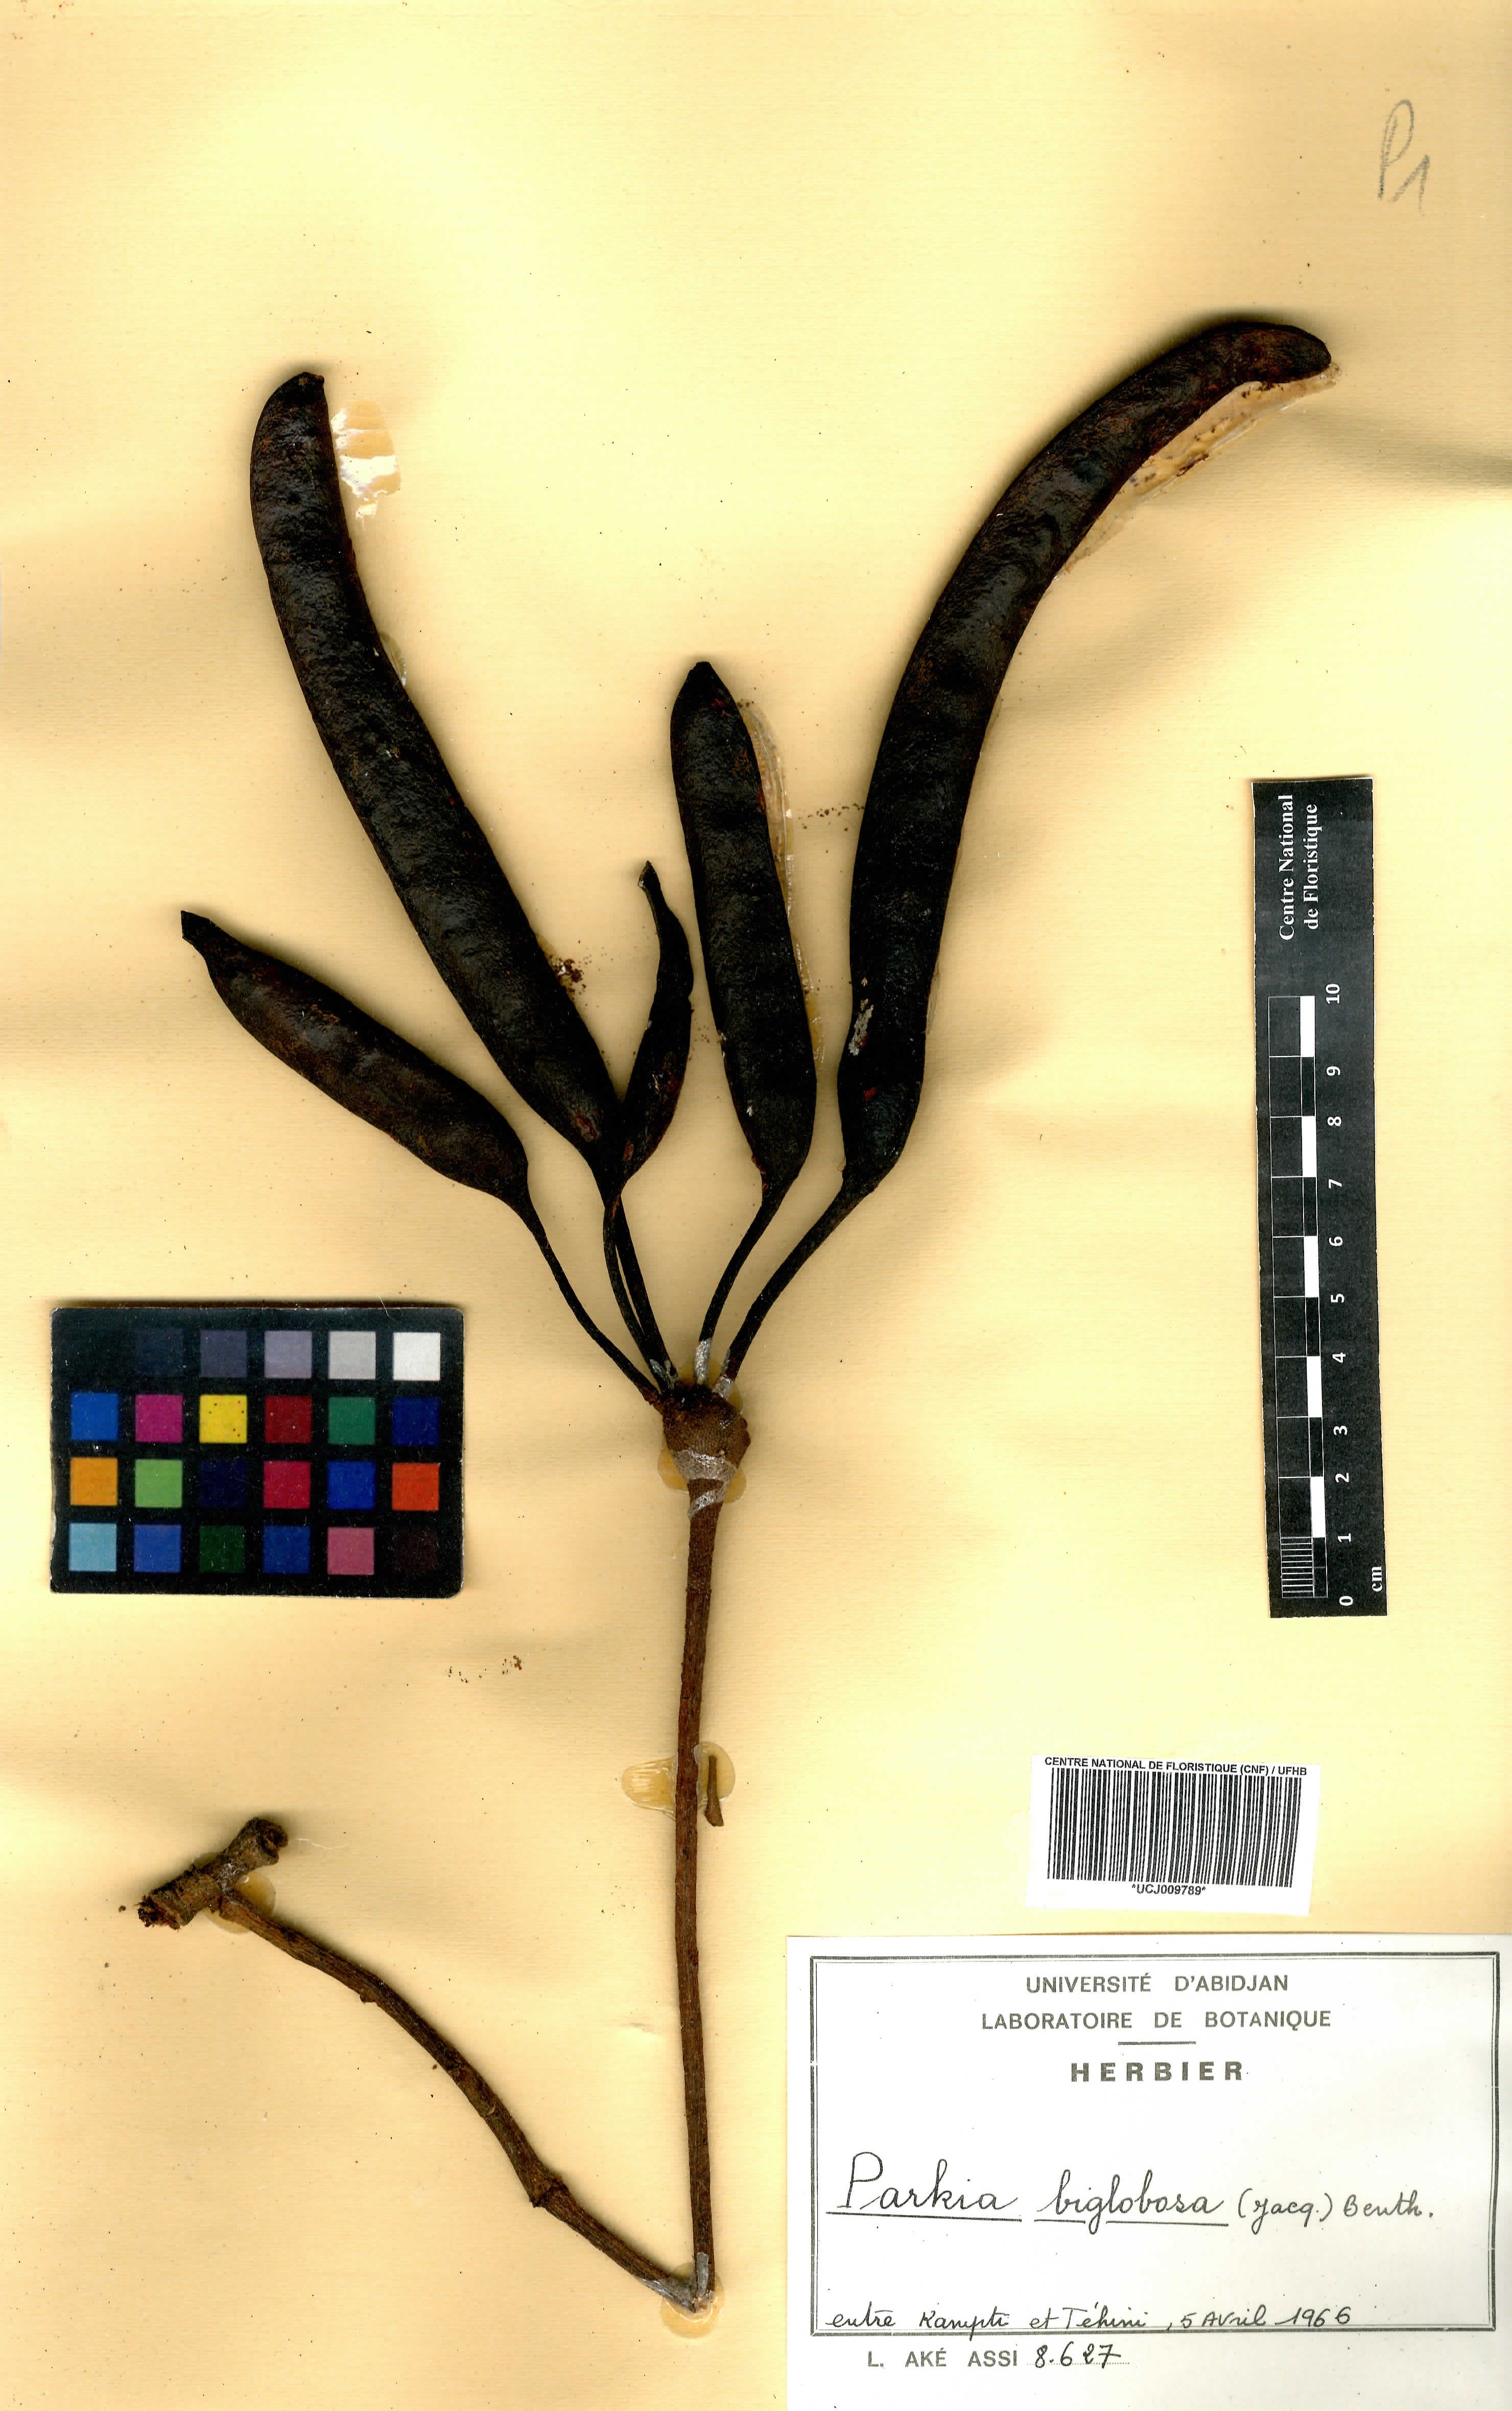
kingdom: Plantae
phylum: Tracheophyta
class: Magnoliopsida
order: Fabales
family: Fabaceae
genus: Parkia
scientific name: Parkia timoriana
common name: Legume
